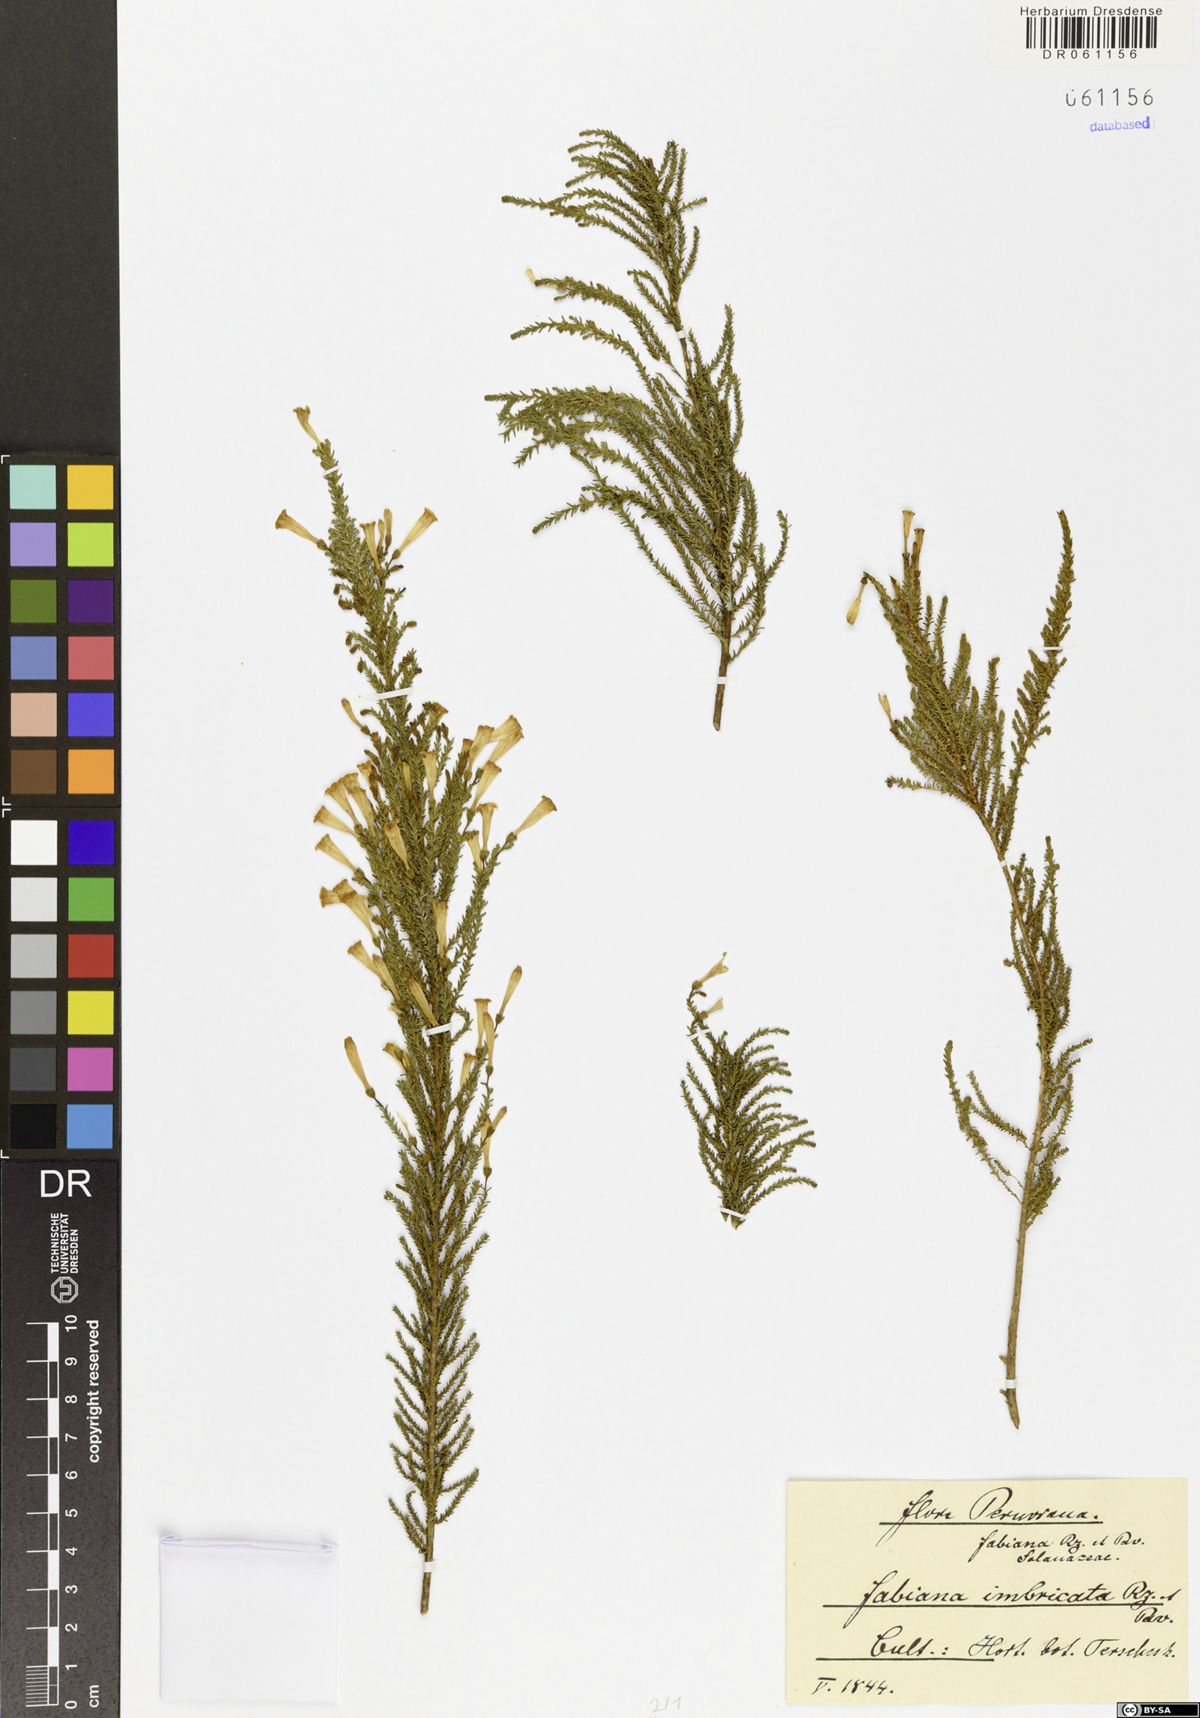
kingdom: Plantae
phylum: Tracheophyta
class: Magnoliopsida
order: Solanales
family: Solanaceae
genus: Fabiana
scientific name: Fabiana imbricata
